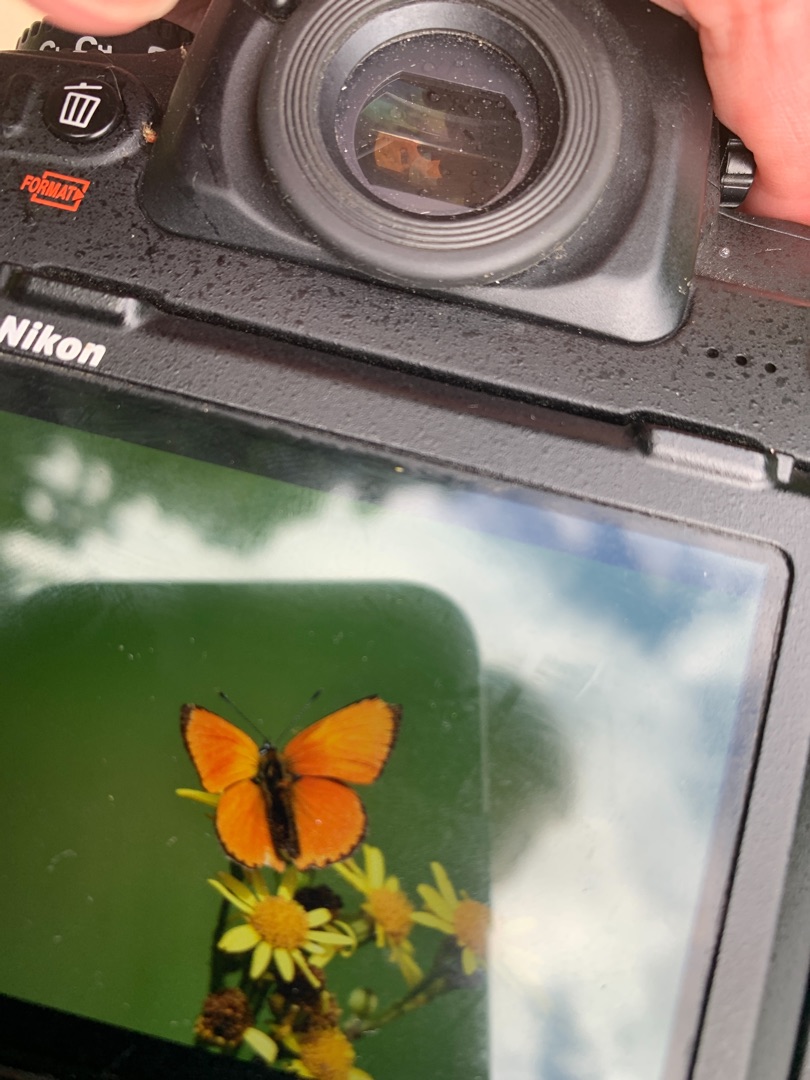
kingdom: Animalia
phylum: Arthropoda
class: Insecta
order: Lepidoptera
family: Lycaenidae
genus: Lycaena
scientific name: Lycaena virgaureae
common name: Dukatsommerfugl
